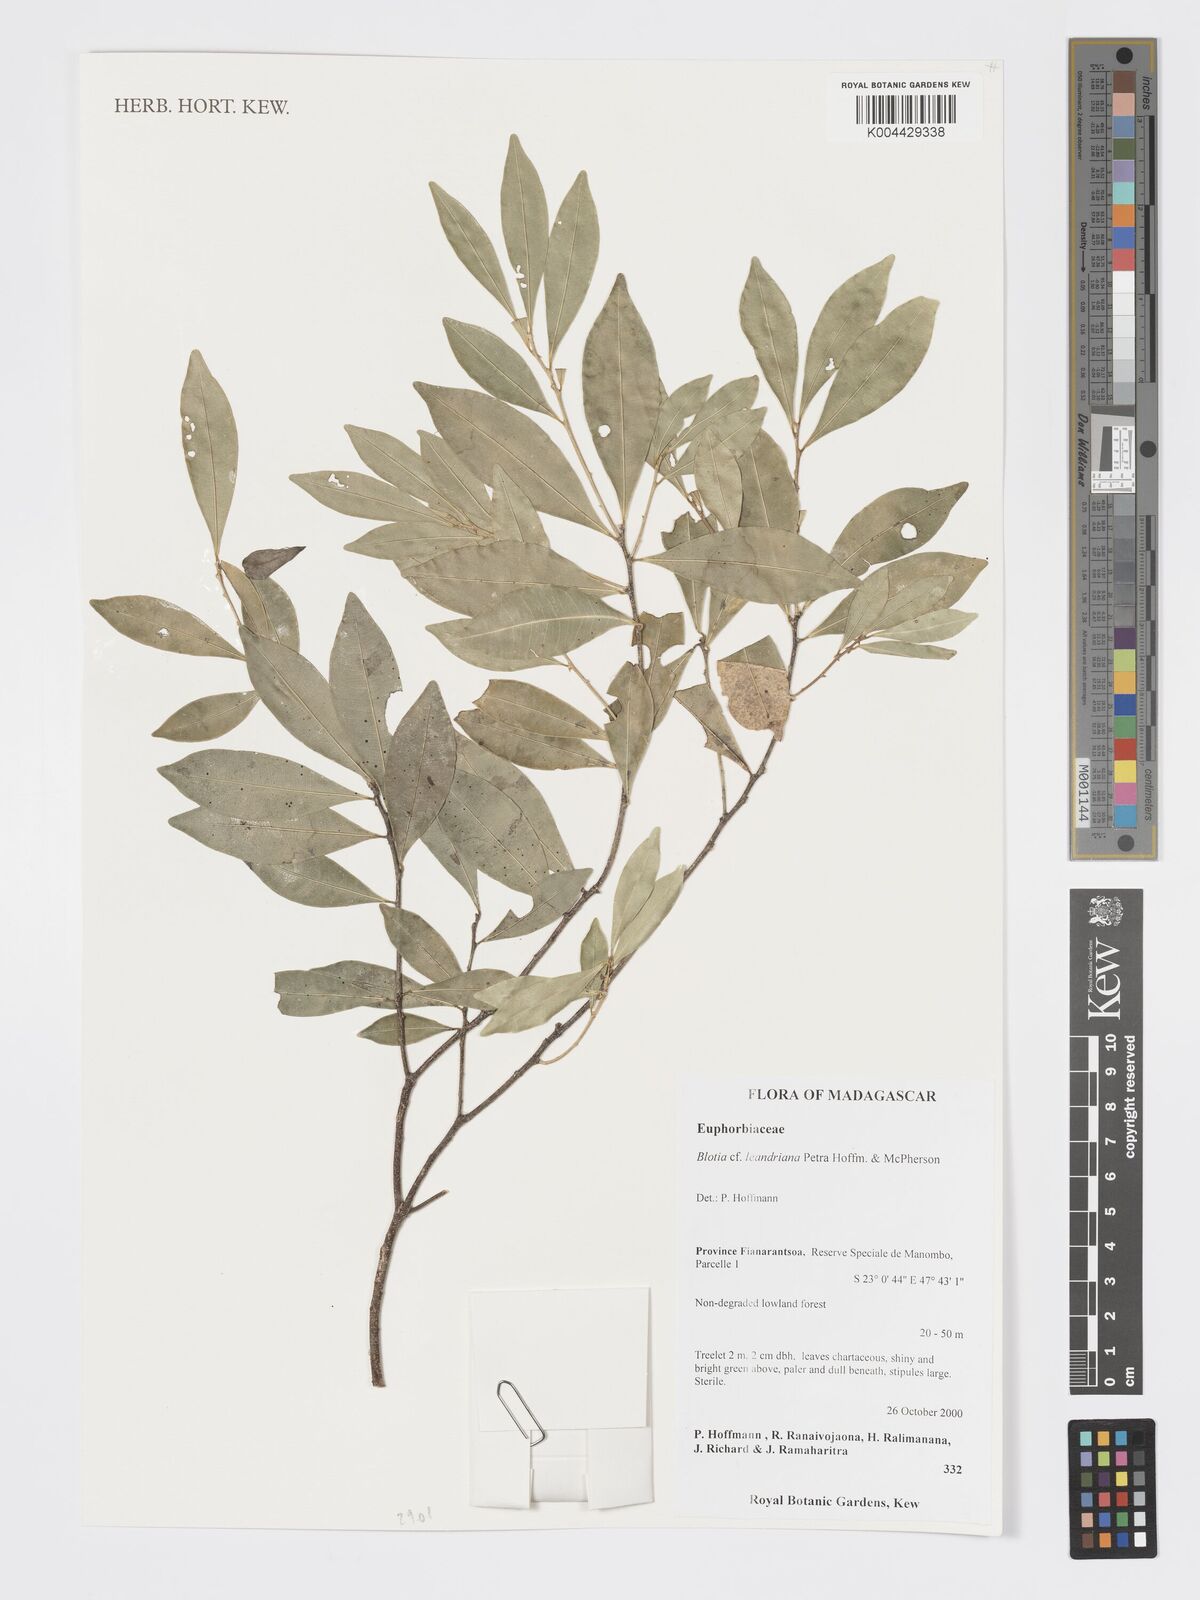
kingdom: Plantae
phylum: Tracheophyta
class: Magnoliopsida
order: Malpighiales
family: Phyllanthaceae
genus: Wielandia
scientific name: Wielandia leandriana
